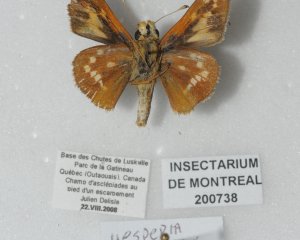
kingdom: Animalia
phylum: Arthropoda
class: Insecta
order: Lepidoptera
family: Hesperiidae
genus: Hesperia
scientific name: Hesperia leonardus
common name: Leonard's Skipper
